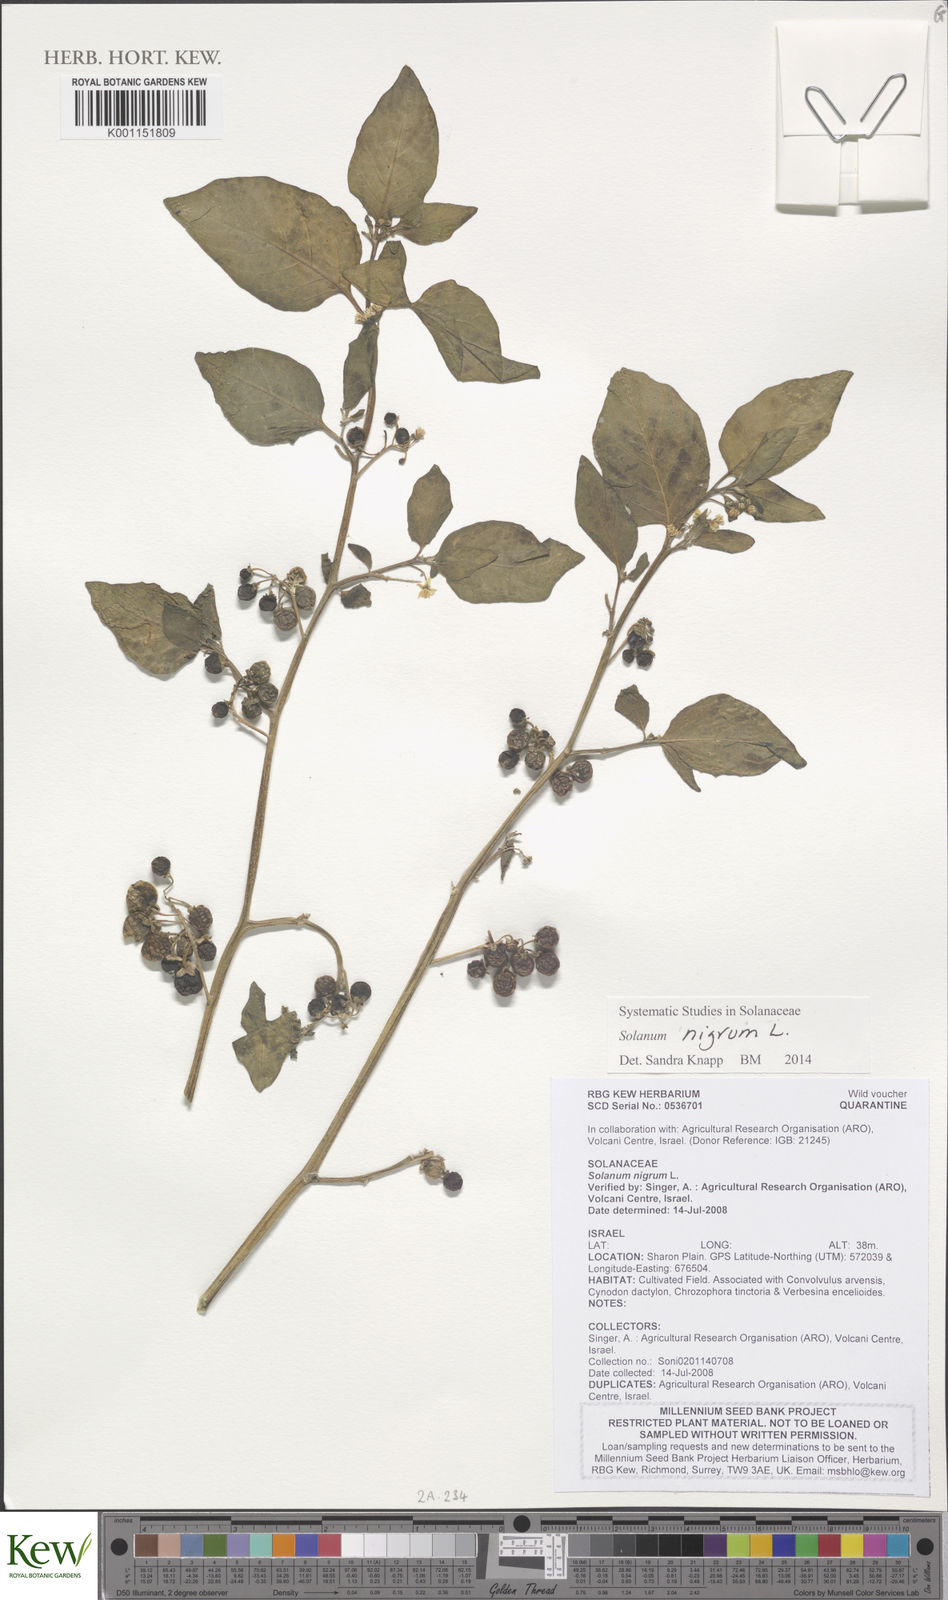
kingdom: Plantae
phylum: Tracheophyta
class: Magnoliopsida
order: Solanales
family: Solanaceae
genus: Solanum
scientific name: Solanum
